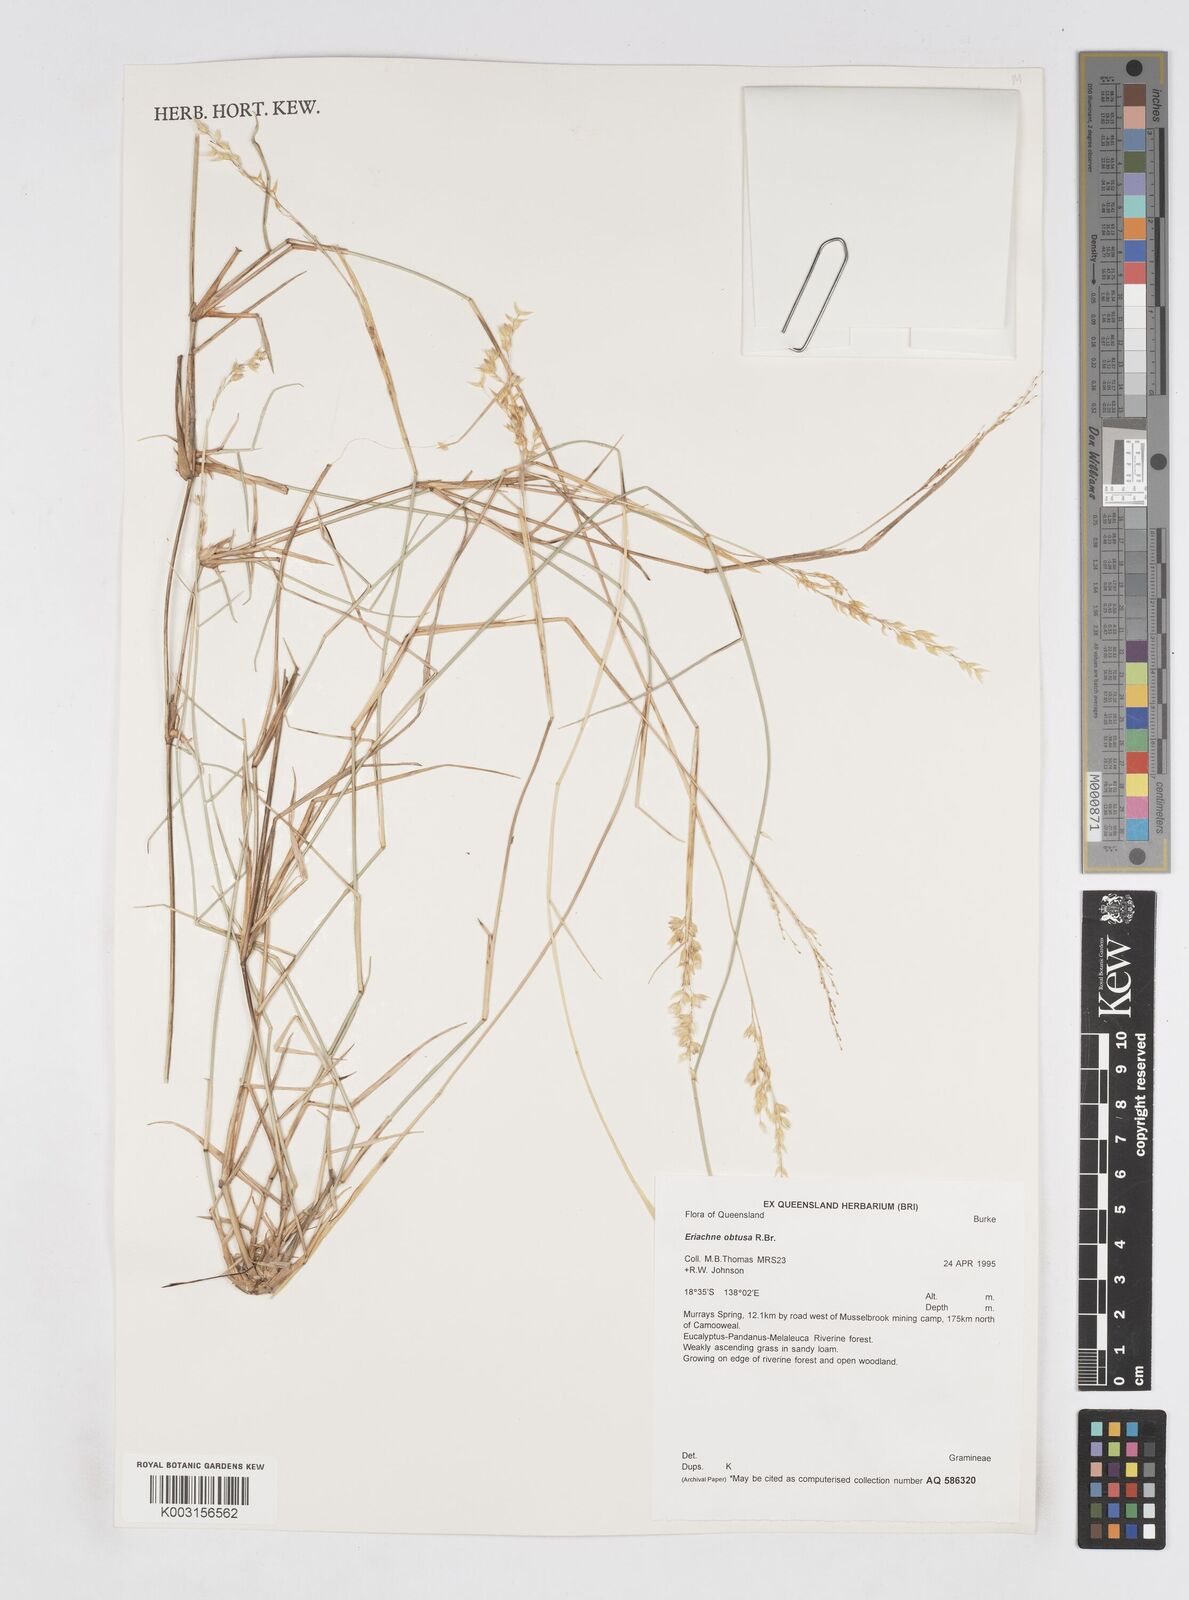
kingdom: Plantae
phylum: Tracheophyta
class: Liliopsida
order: Poales
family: Poaceae
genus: Eriachne
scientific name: Eriachne obtusa
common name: Northern wanderrie grass
